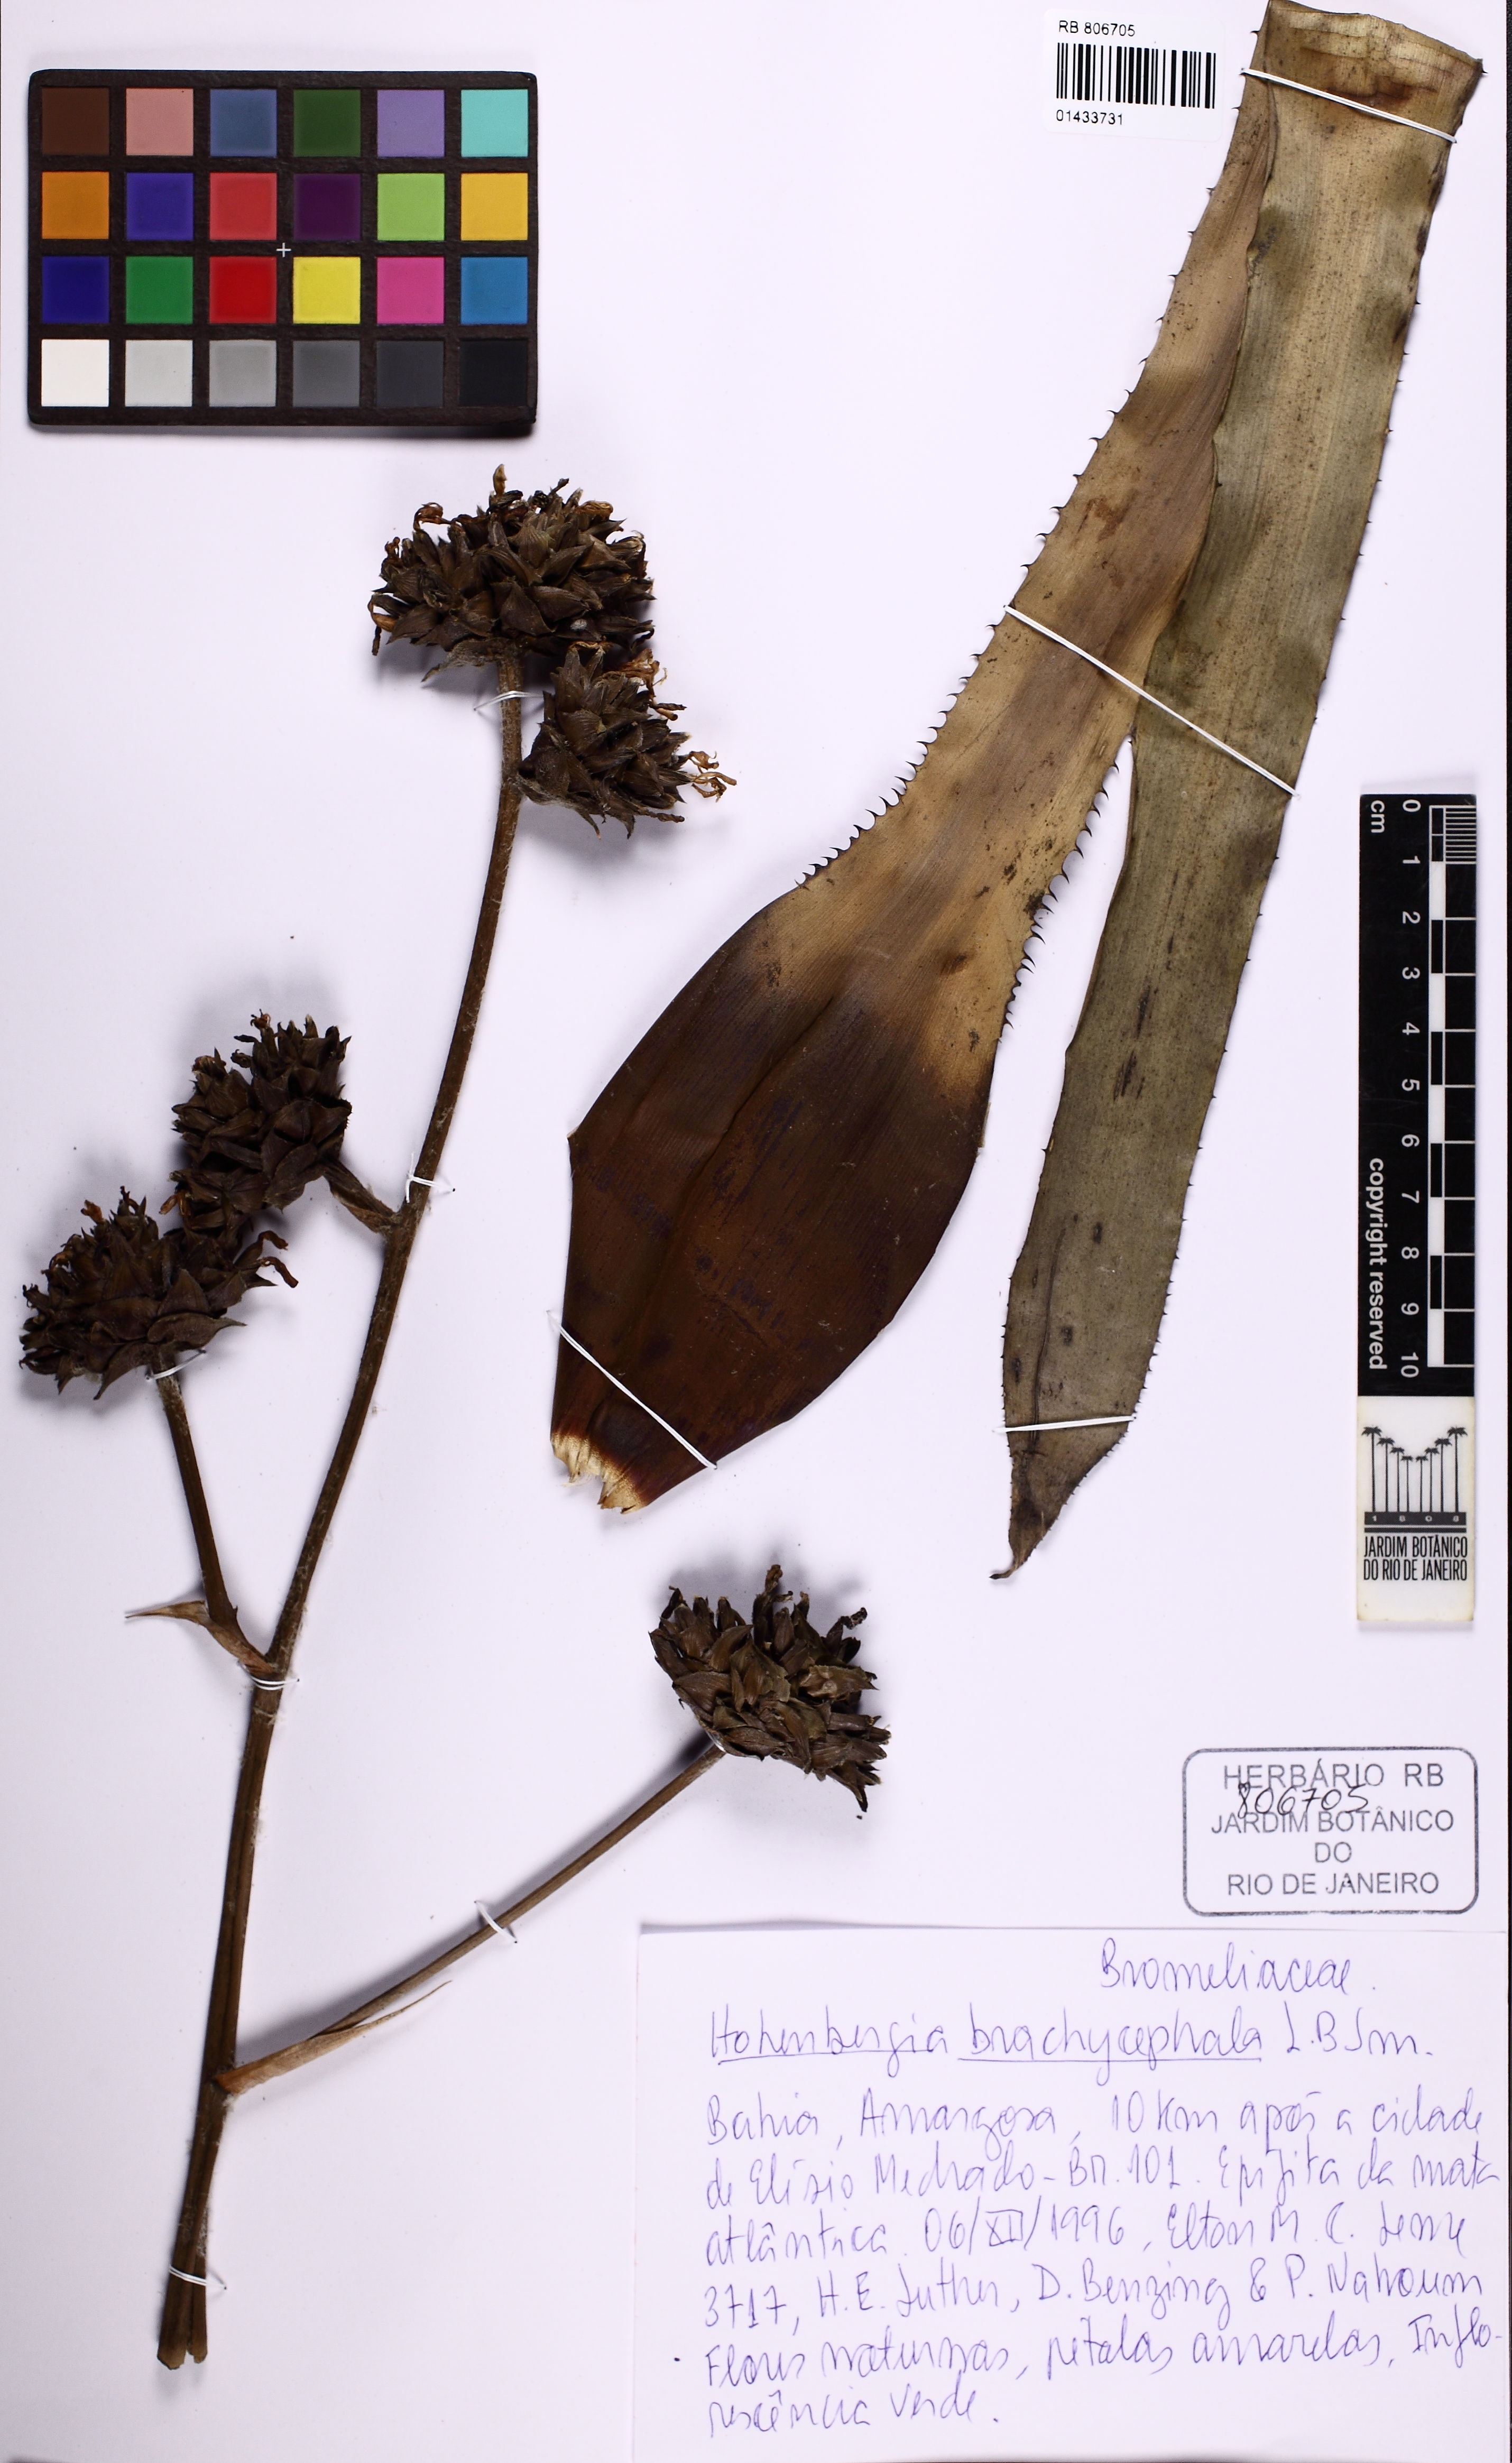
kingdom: Plantae
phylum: Tracheophyta
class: Liliopsida
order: Poales
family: Bromeliaceae
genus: Hohenbergia
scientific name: Hohenbergia brachycephala
